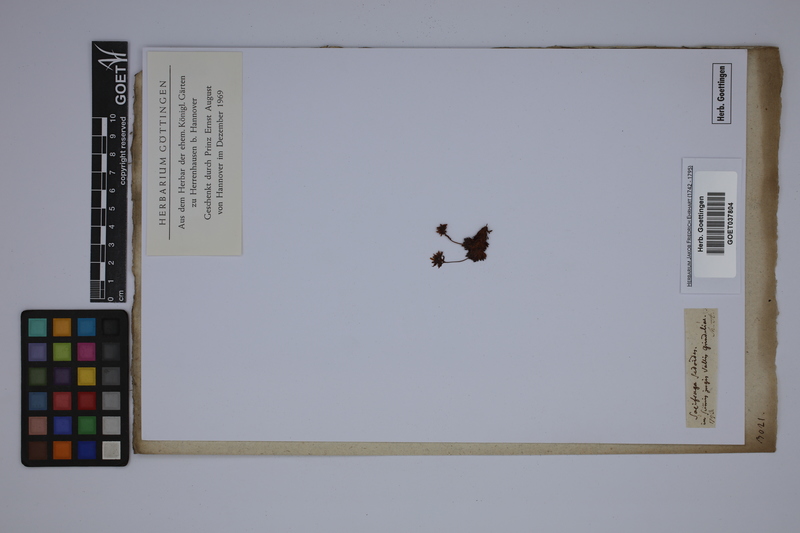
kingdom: Plantae
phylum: Tracheophyta
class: Magnoliopsida
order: Saxifragales
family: Saxifragaceae
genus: Saxifraga
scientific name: Saxifraga sedoides
